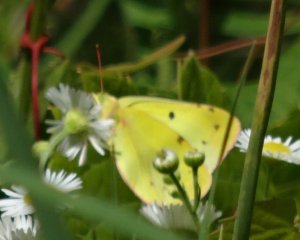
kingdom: Animalia
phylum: Arthropoda
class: Insecta
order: Lepidoptera
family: Pieridae
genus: Colias
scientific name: Colias philodice
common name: Clouded Sulphur
